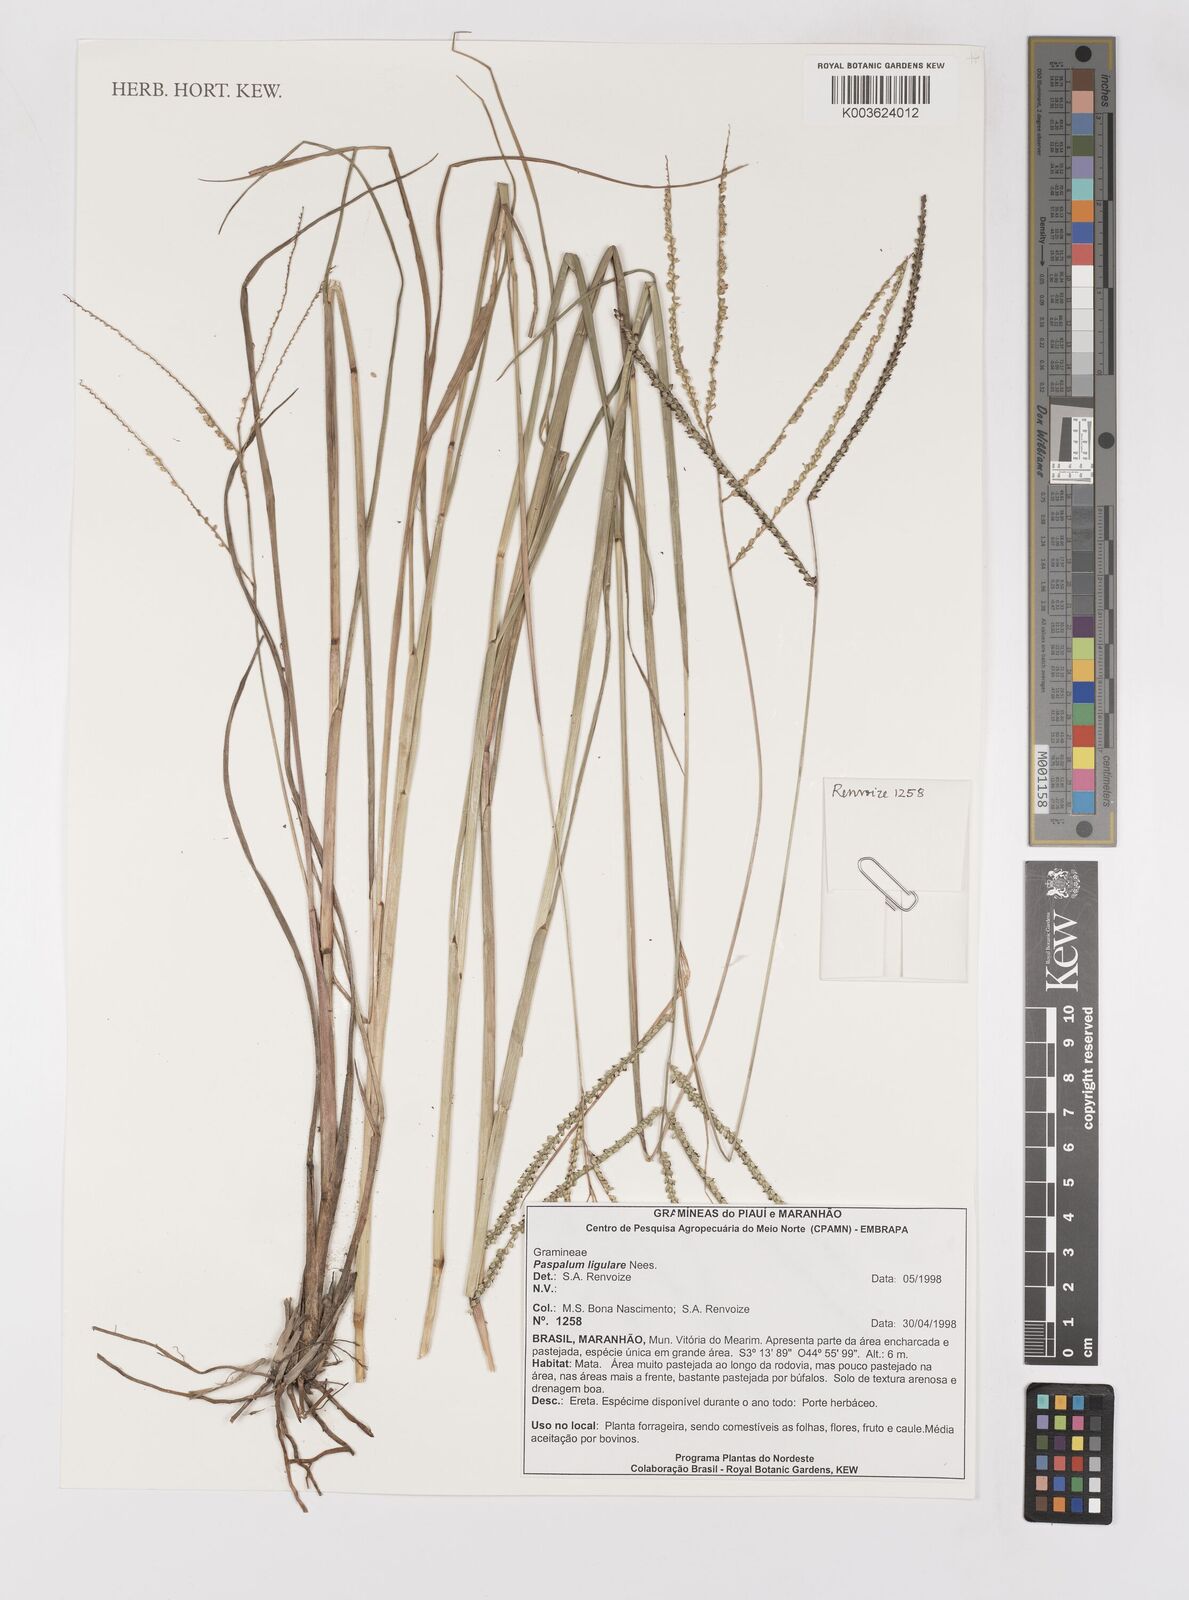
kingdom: Plantae
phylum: Tracheophyta
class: Liliopsida
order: Poales
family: Poaceae
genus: Paspalum
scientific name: Paspalum ligulare
